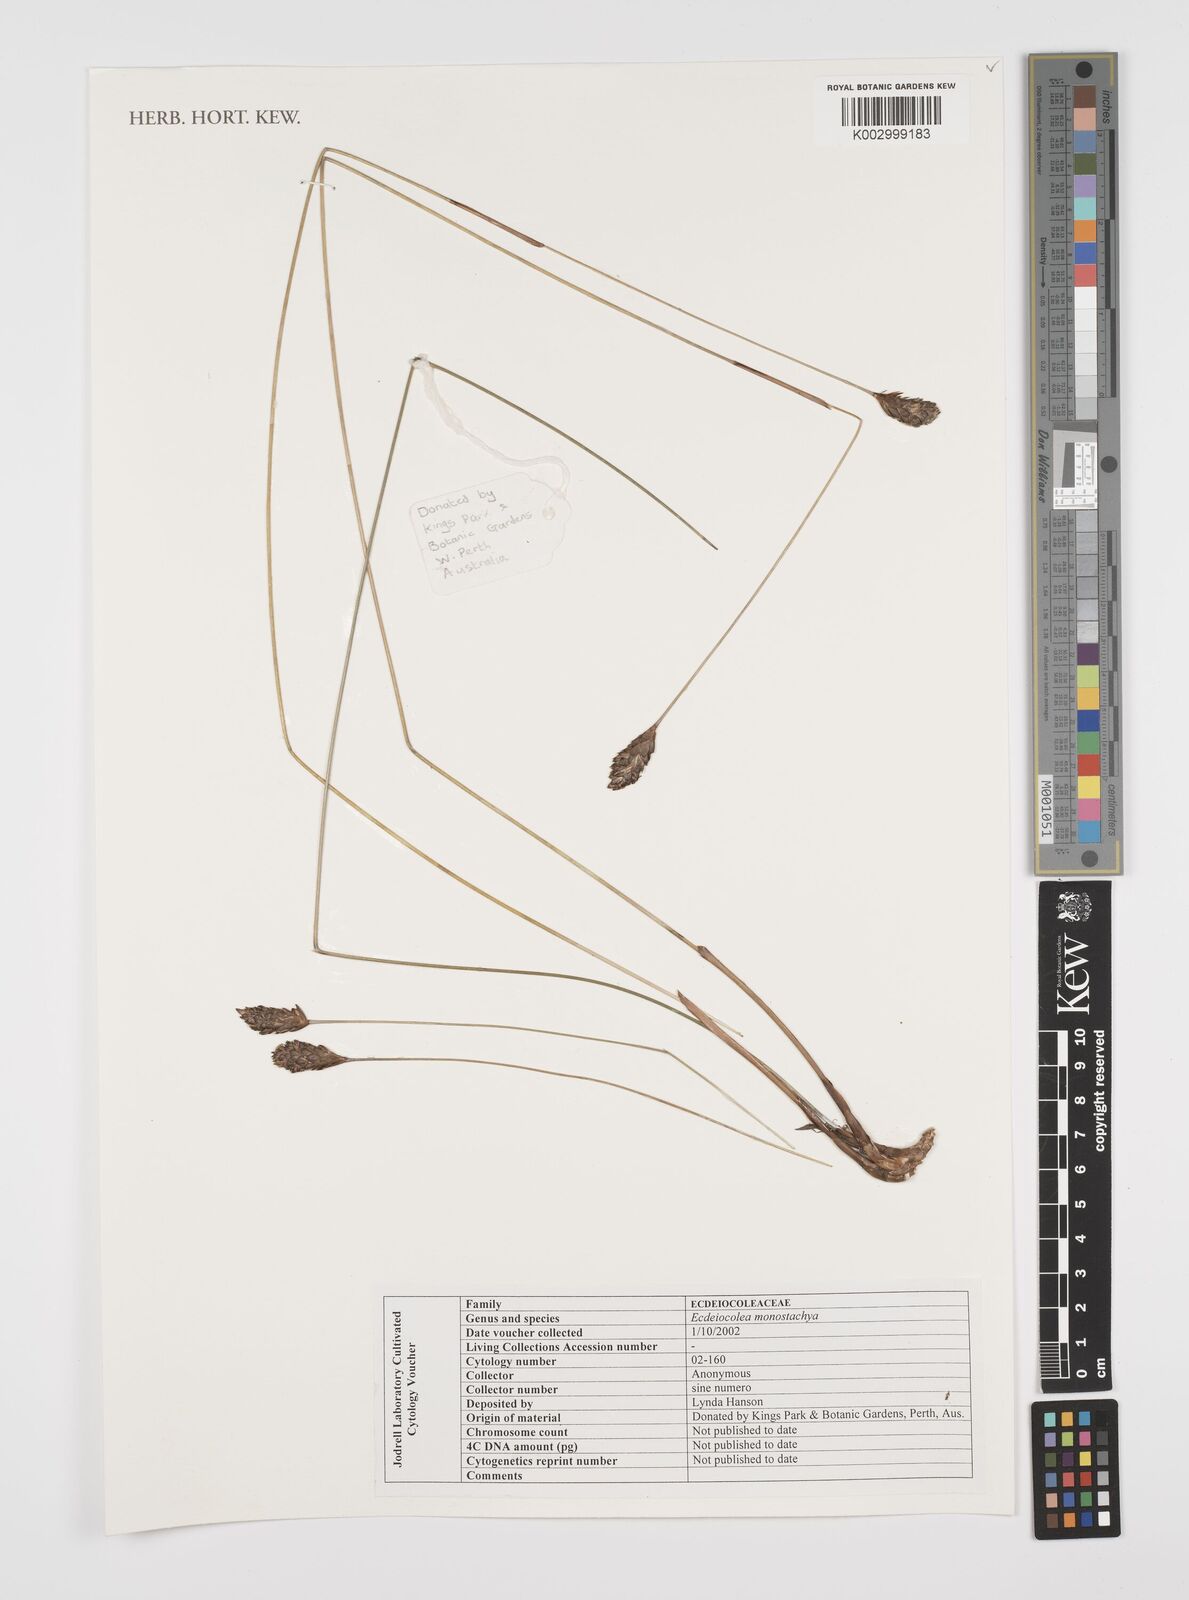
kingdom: Plantae
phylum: Tracheophyta
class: Liliopsida
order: Poales
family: Ecdeiocoleaceae
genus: Ecdeiocolea
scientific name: Ecdeiocolea monostachya
